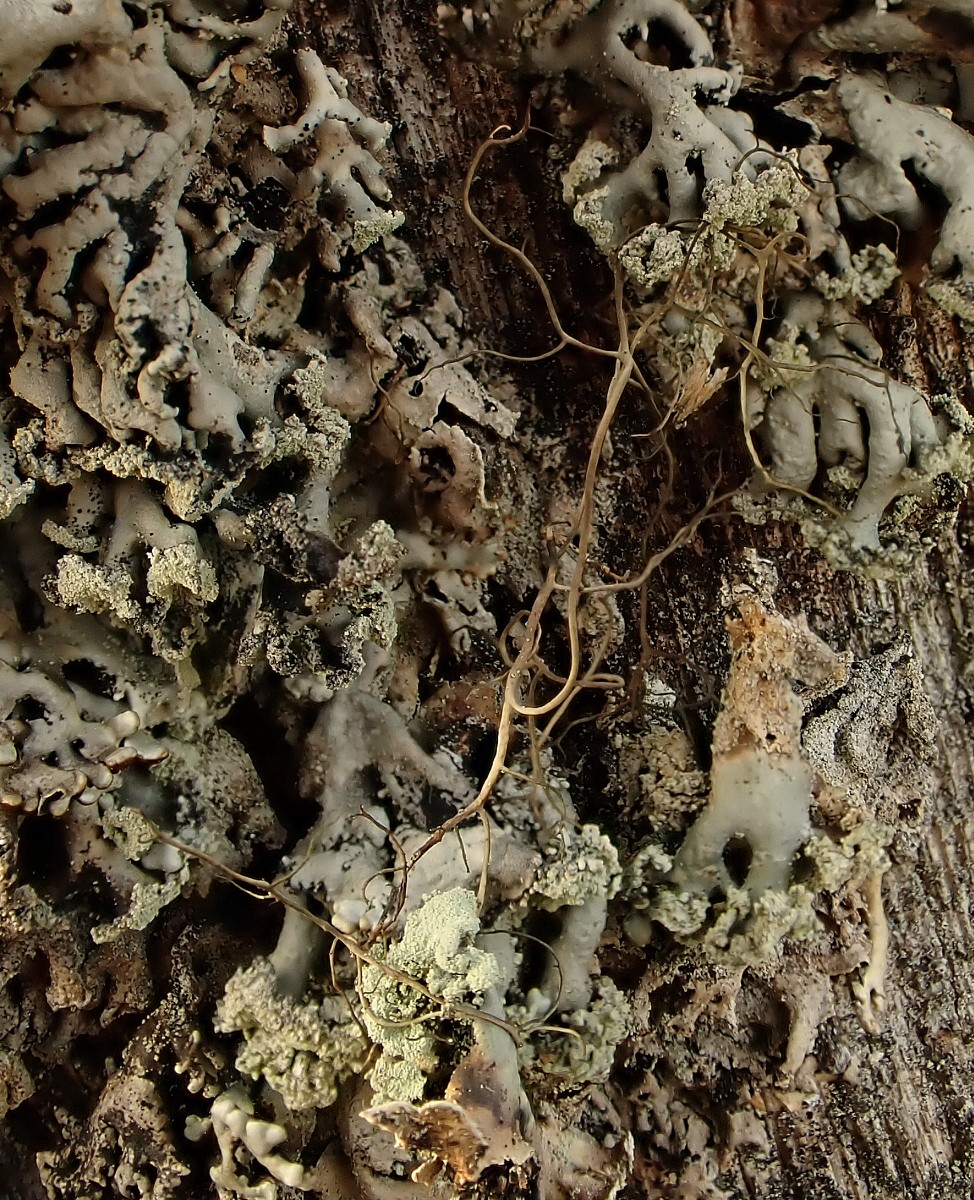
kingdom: Fungi
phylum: Ascomycota
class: Lecanoromycetes
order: Lecanorales
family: Parmeliaceae
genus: Bryoria
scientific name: Bryoria
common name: almindelig mankelav
